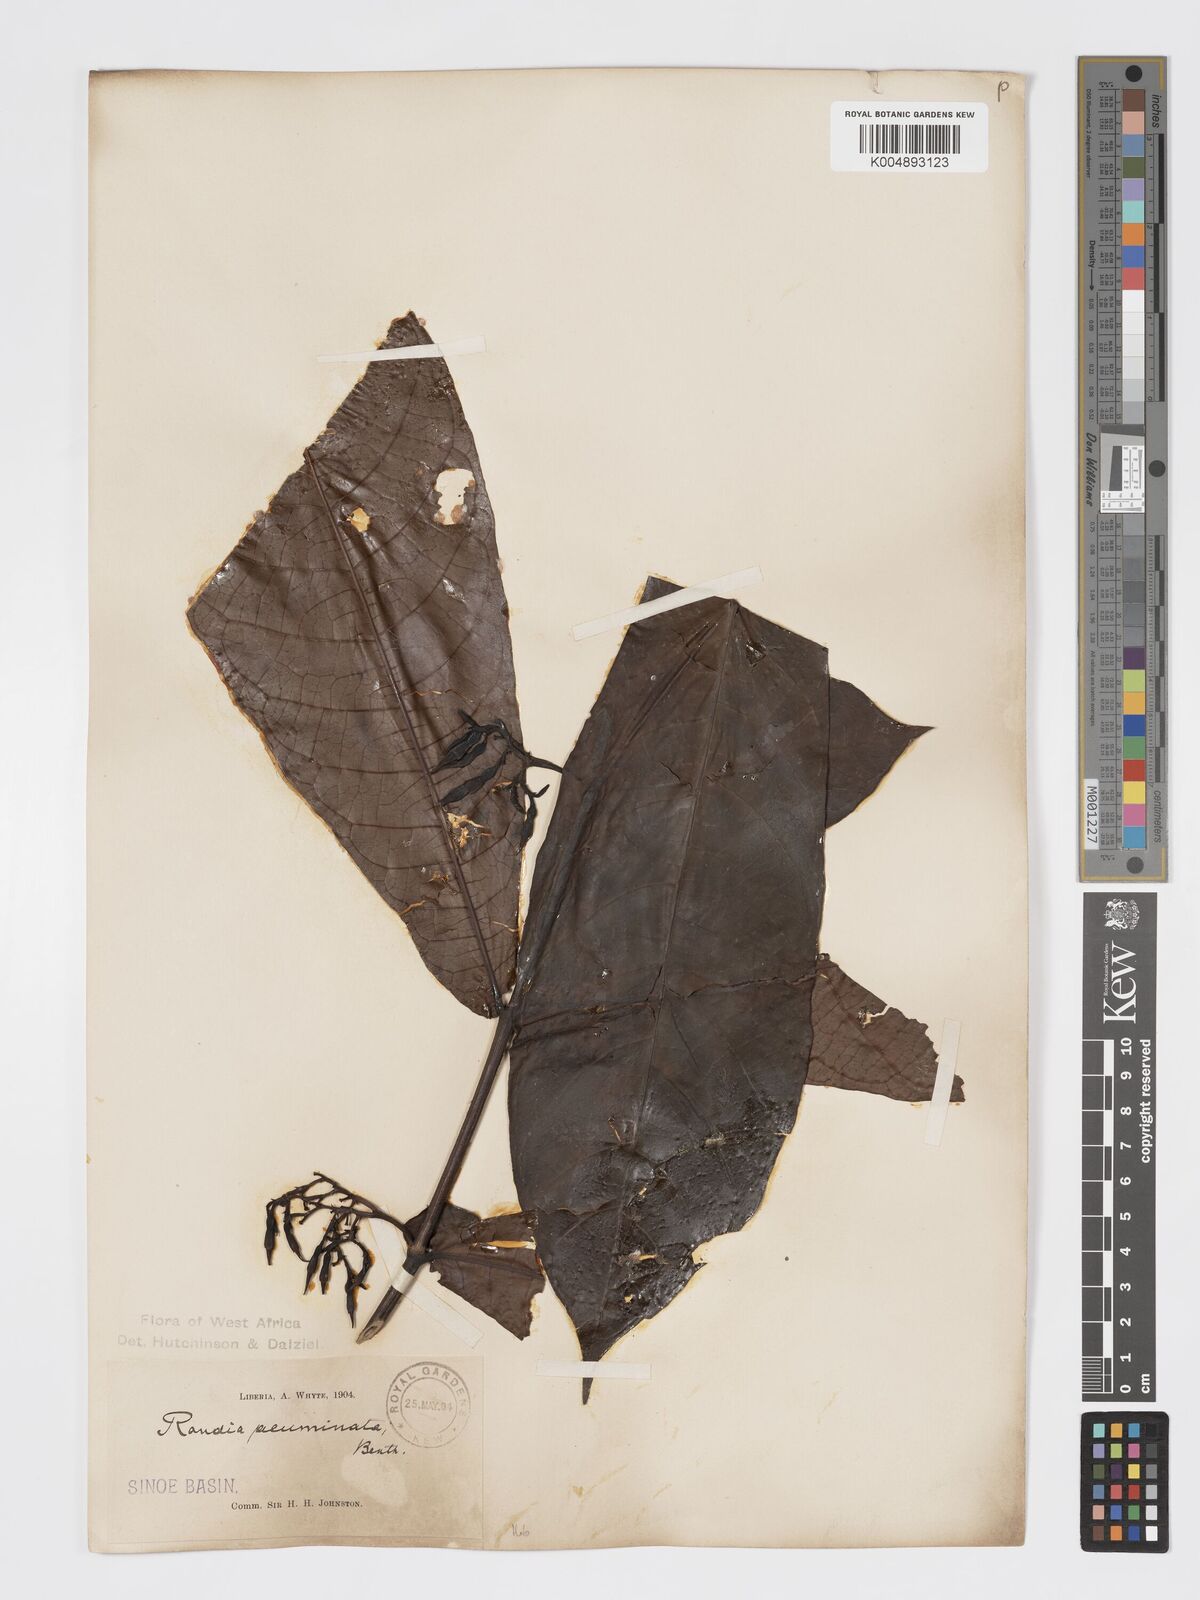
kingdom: Plantae
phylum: Tracheophyta
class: Magnoliopsida
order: Gentianales
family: Rubiaceae
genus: Massularia
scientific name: Massularia acuminata
